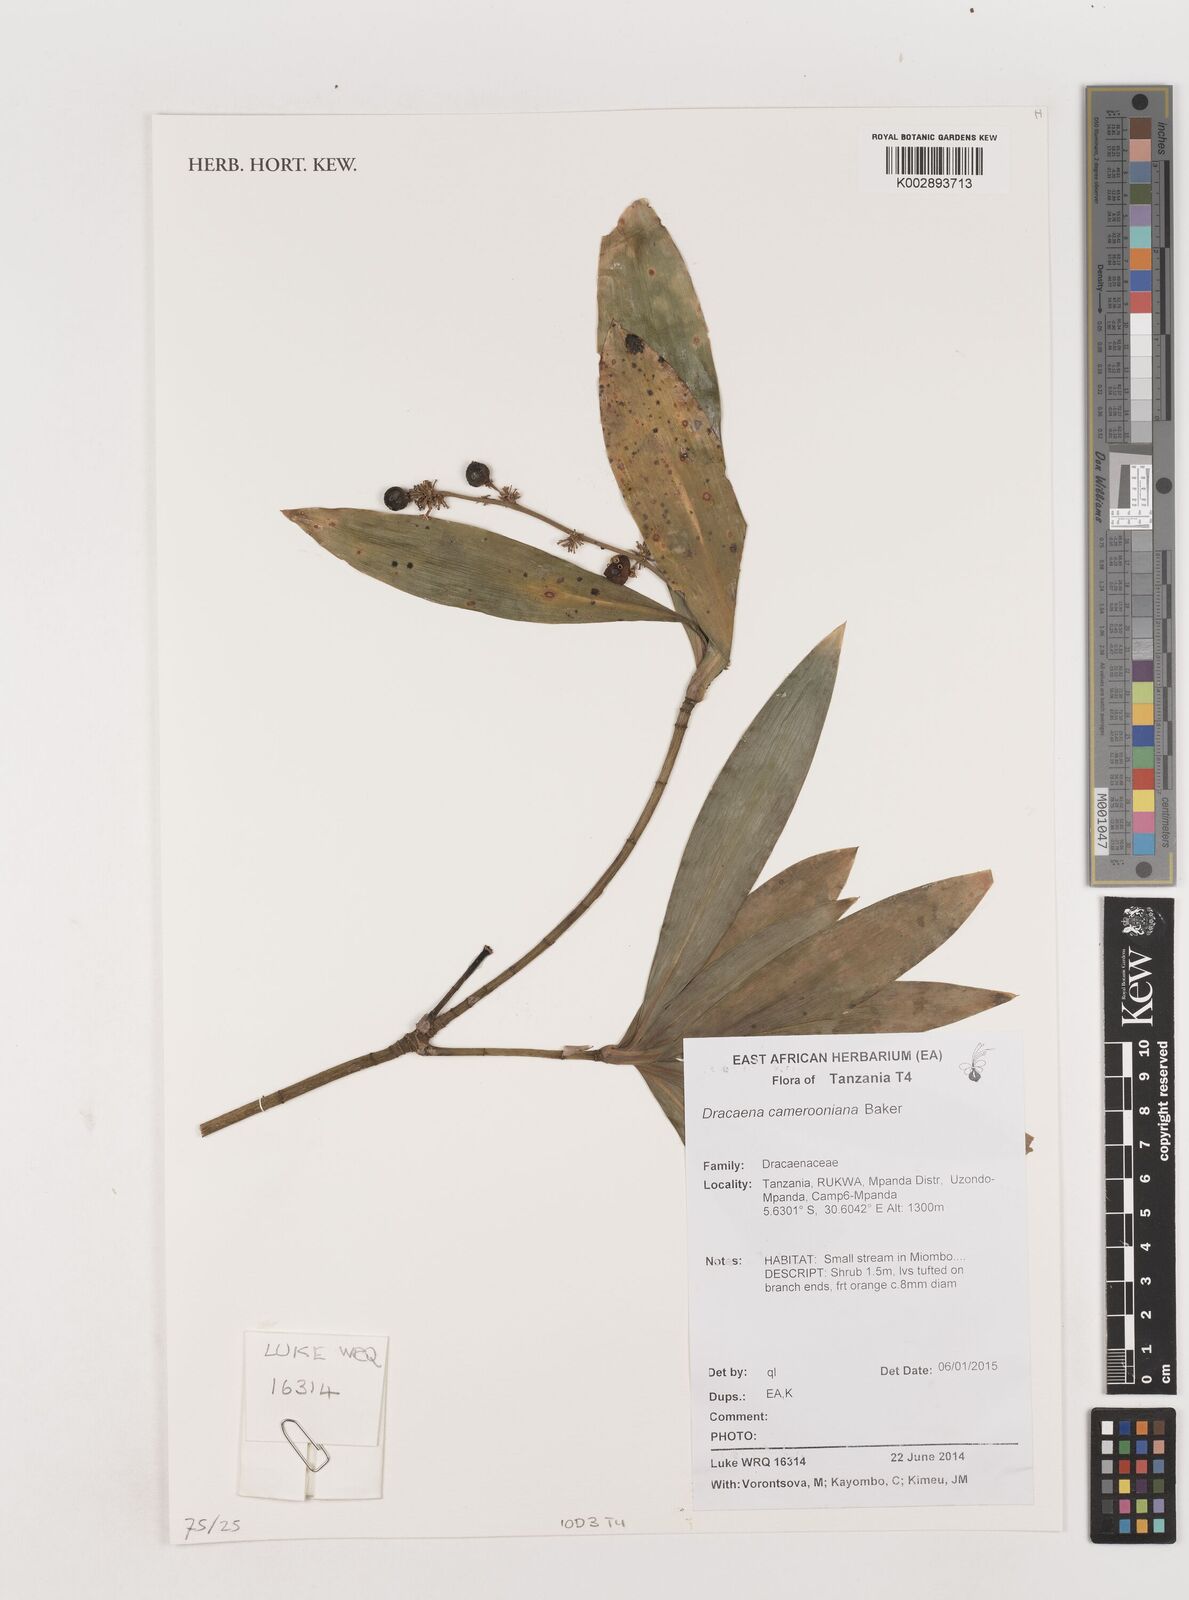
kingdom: Plantae
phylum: Tracheophyta
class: Liliopsida
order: Asparagales
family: Asparagaceae
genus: Dracaena
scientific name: Dracaena camerooniana
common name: Dragon tree
